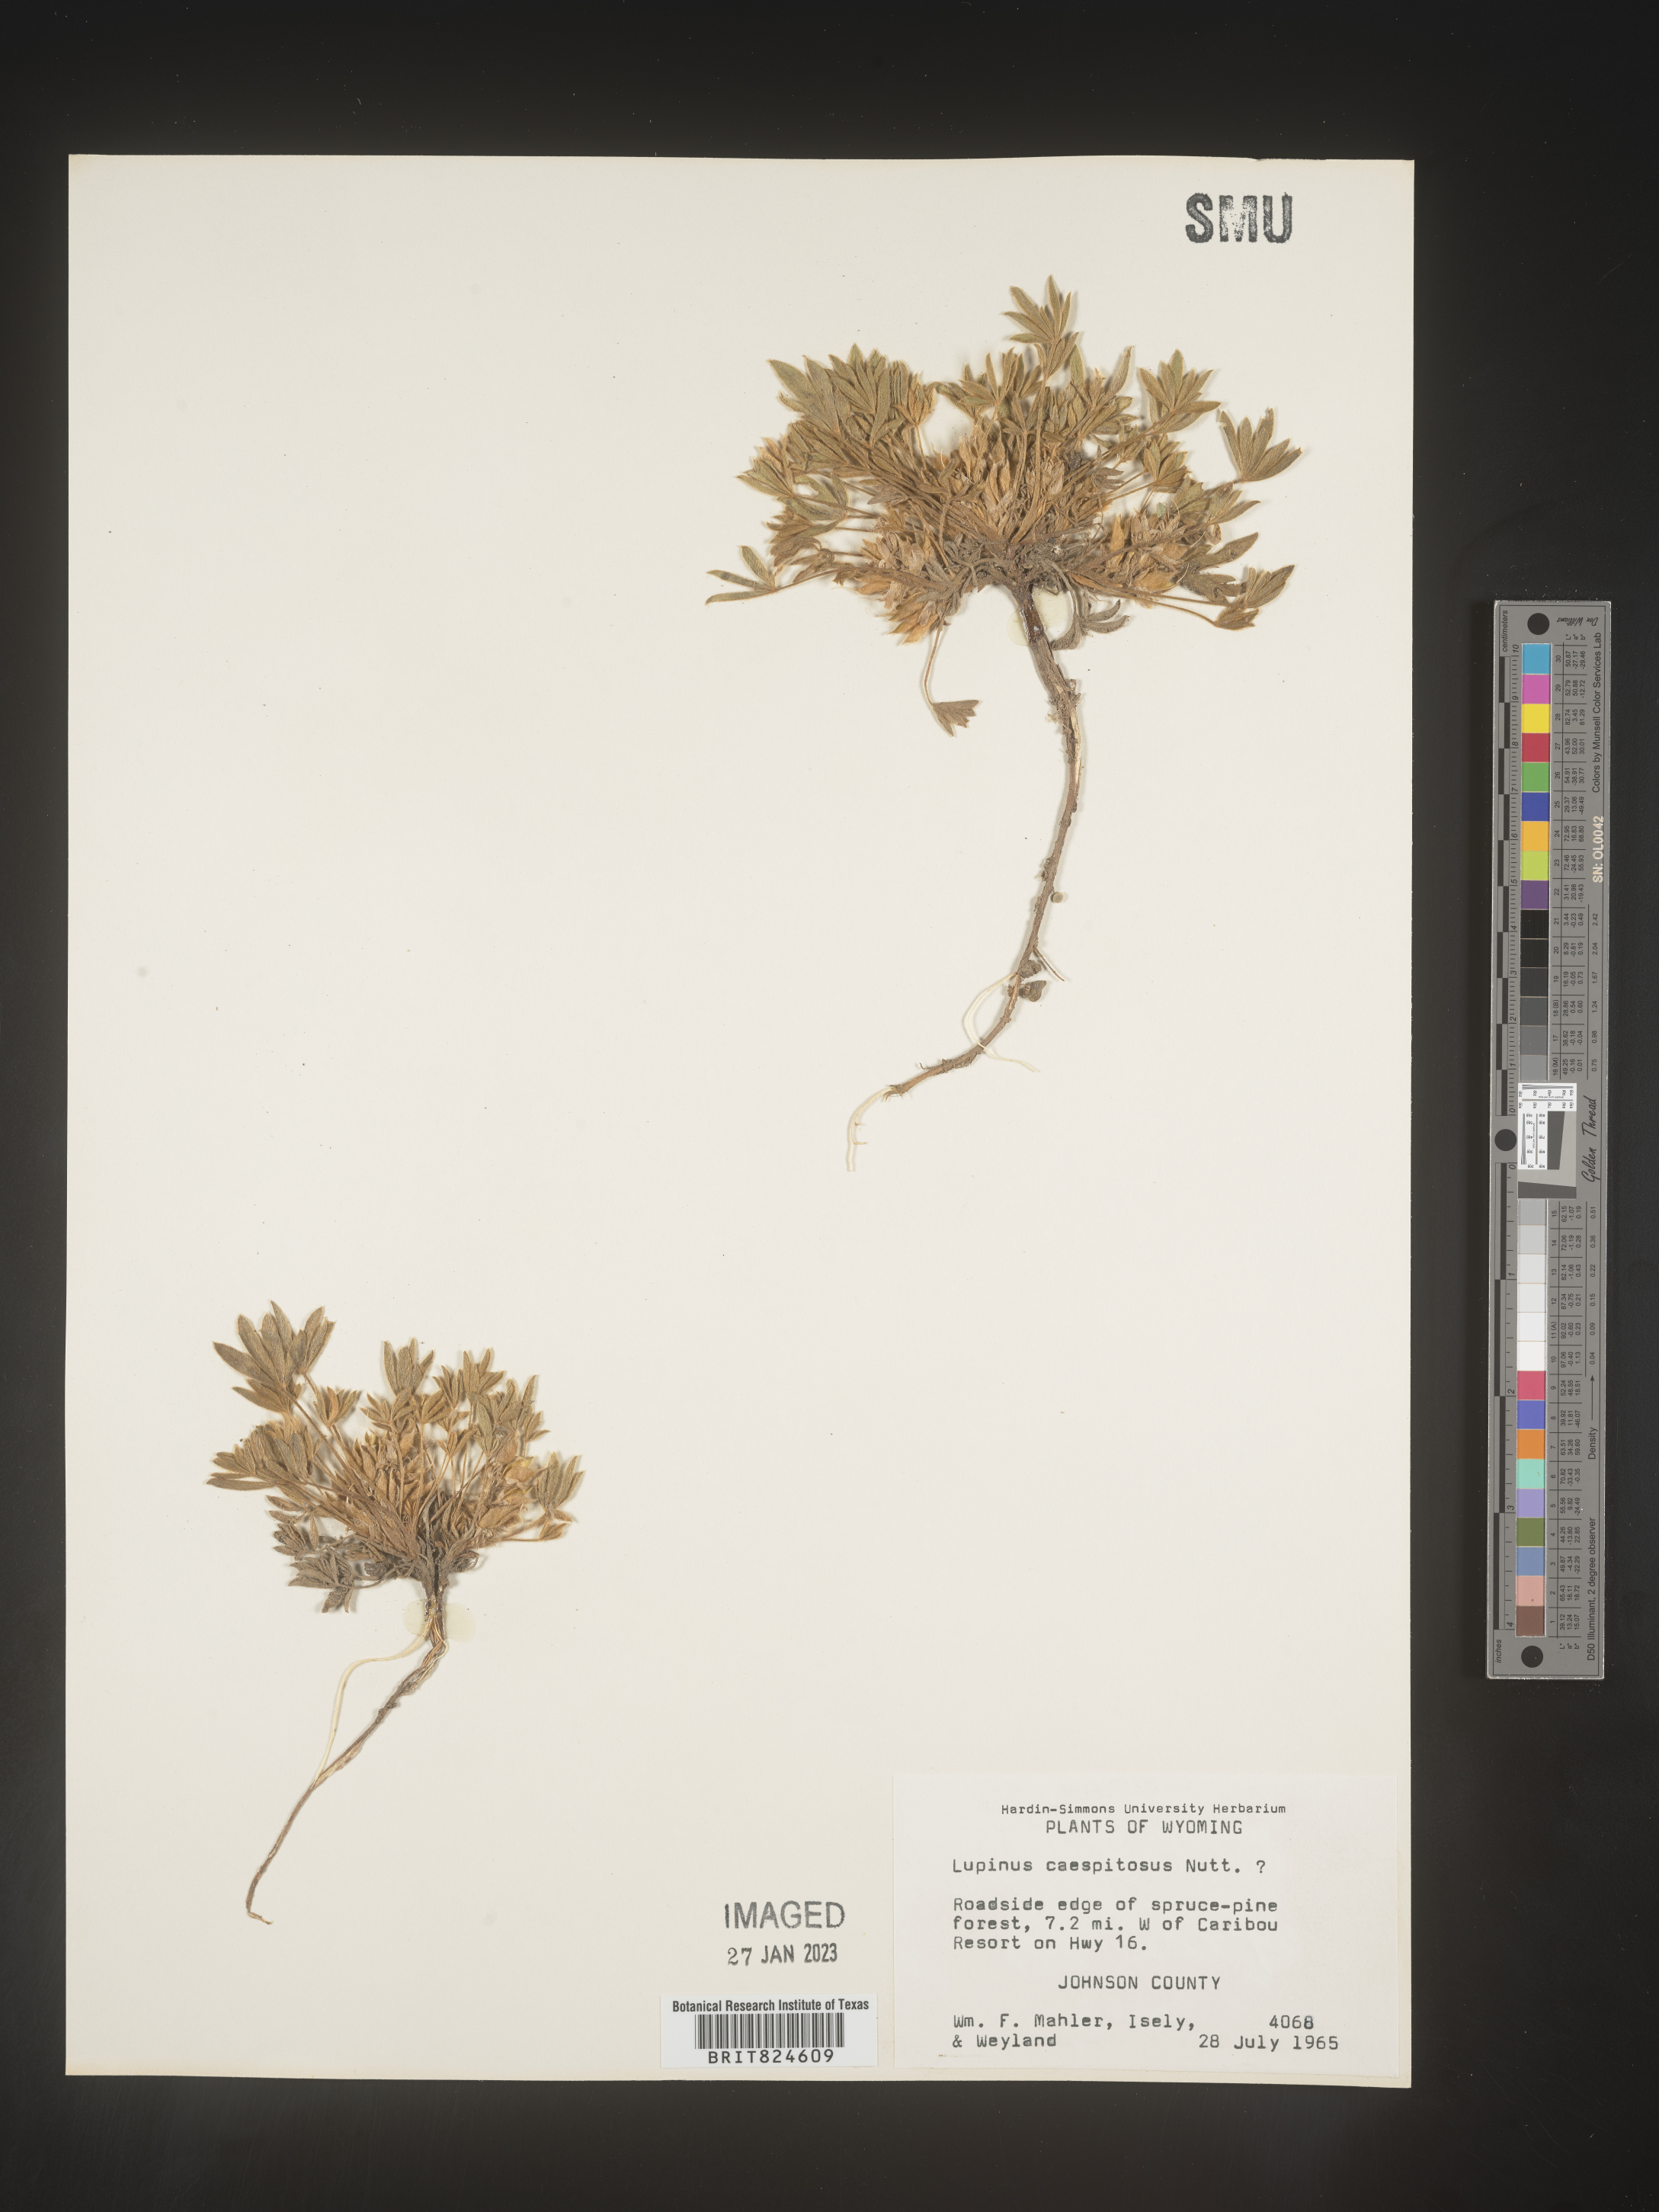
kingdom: Plantae
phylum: Tracheophyta
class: Magnoliopsida
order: Fabales
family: Fabaceae
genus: Lupinus
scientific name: Lupinus caespitosus
